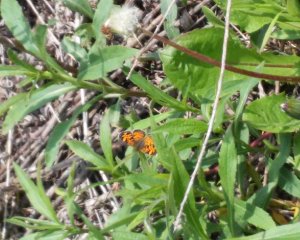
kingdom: Animalia
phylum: Arthropoda
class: Insecta
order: Lepidoptera
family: Nymphalidae
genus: Phyciodes
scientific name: Phyciodes
